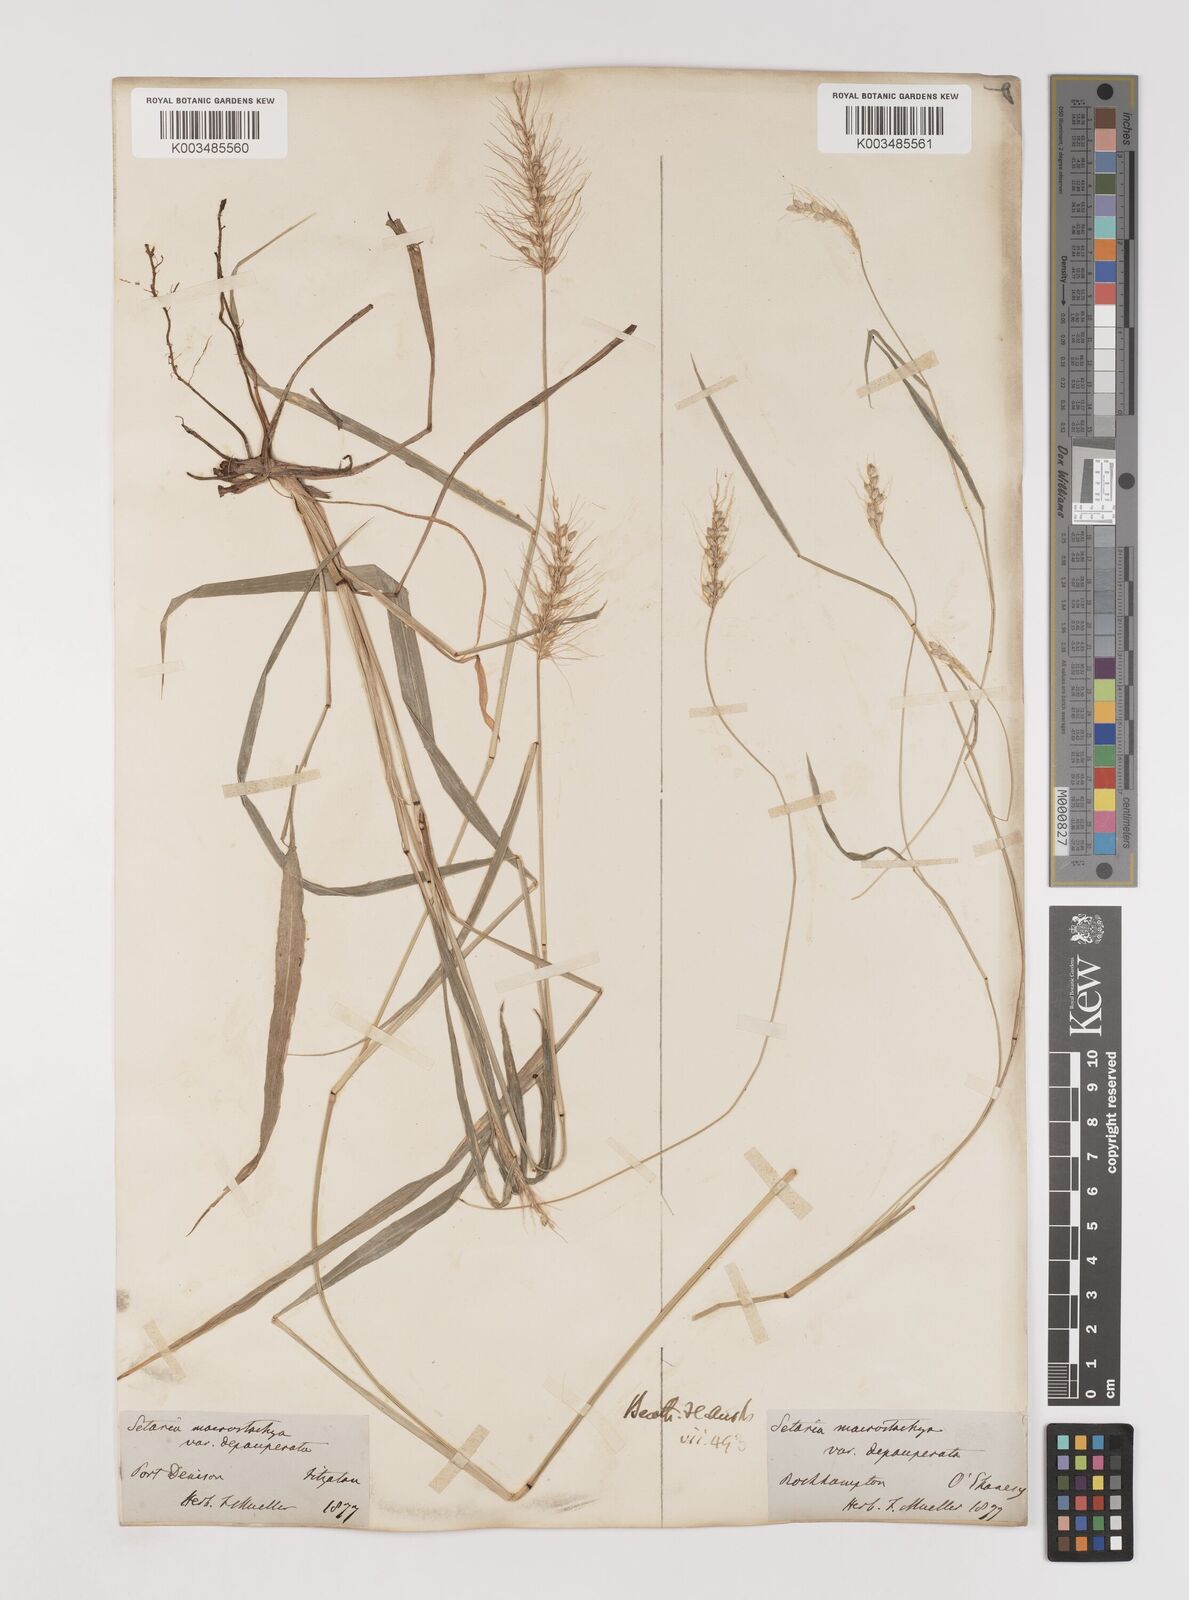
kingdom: Plantae
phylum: Tracheophyta
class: Liliopsida
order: Poales
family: Poaceae
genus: Setaria
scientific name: Setaria
